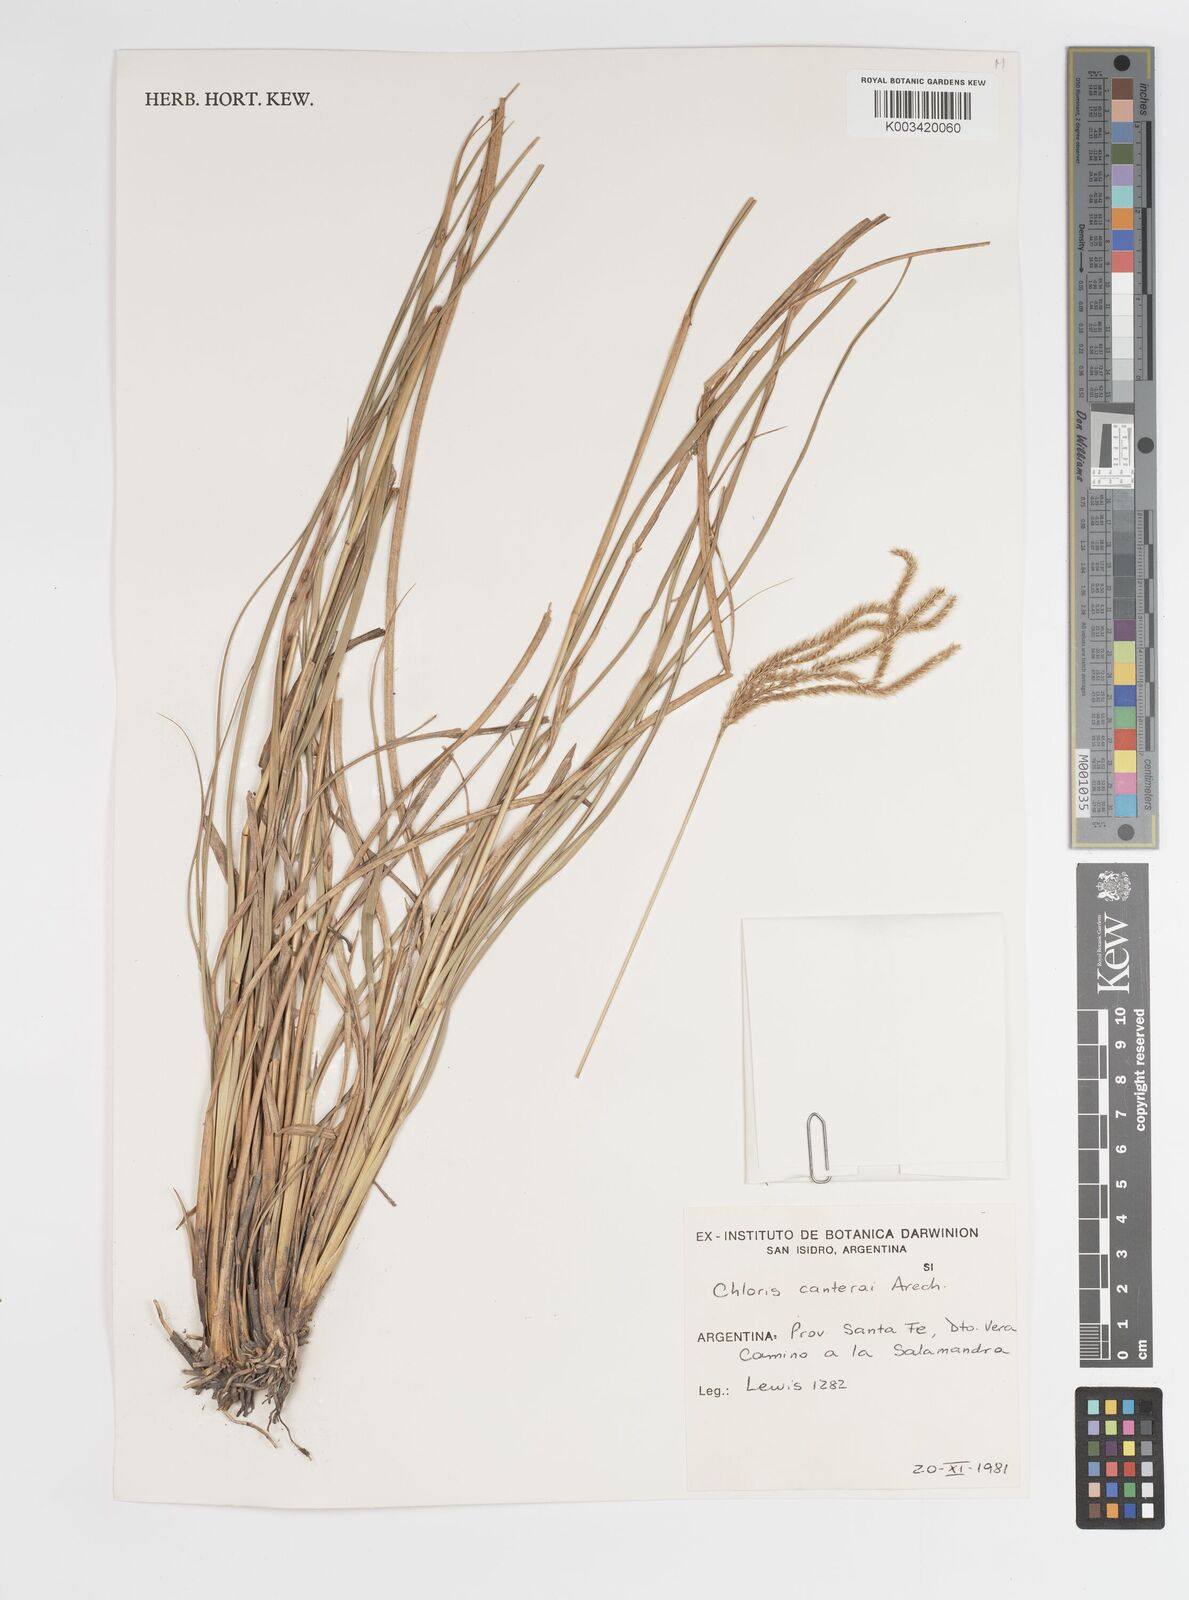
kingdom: Plantae
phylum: Tracheophyta
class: Liliopsida
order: Poales
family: Poaceae
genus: Stapfochloa
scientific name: Stapfochloa canterae
